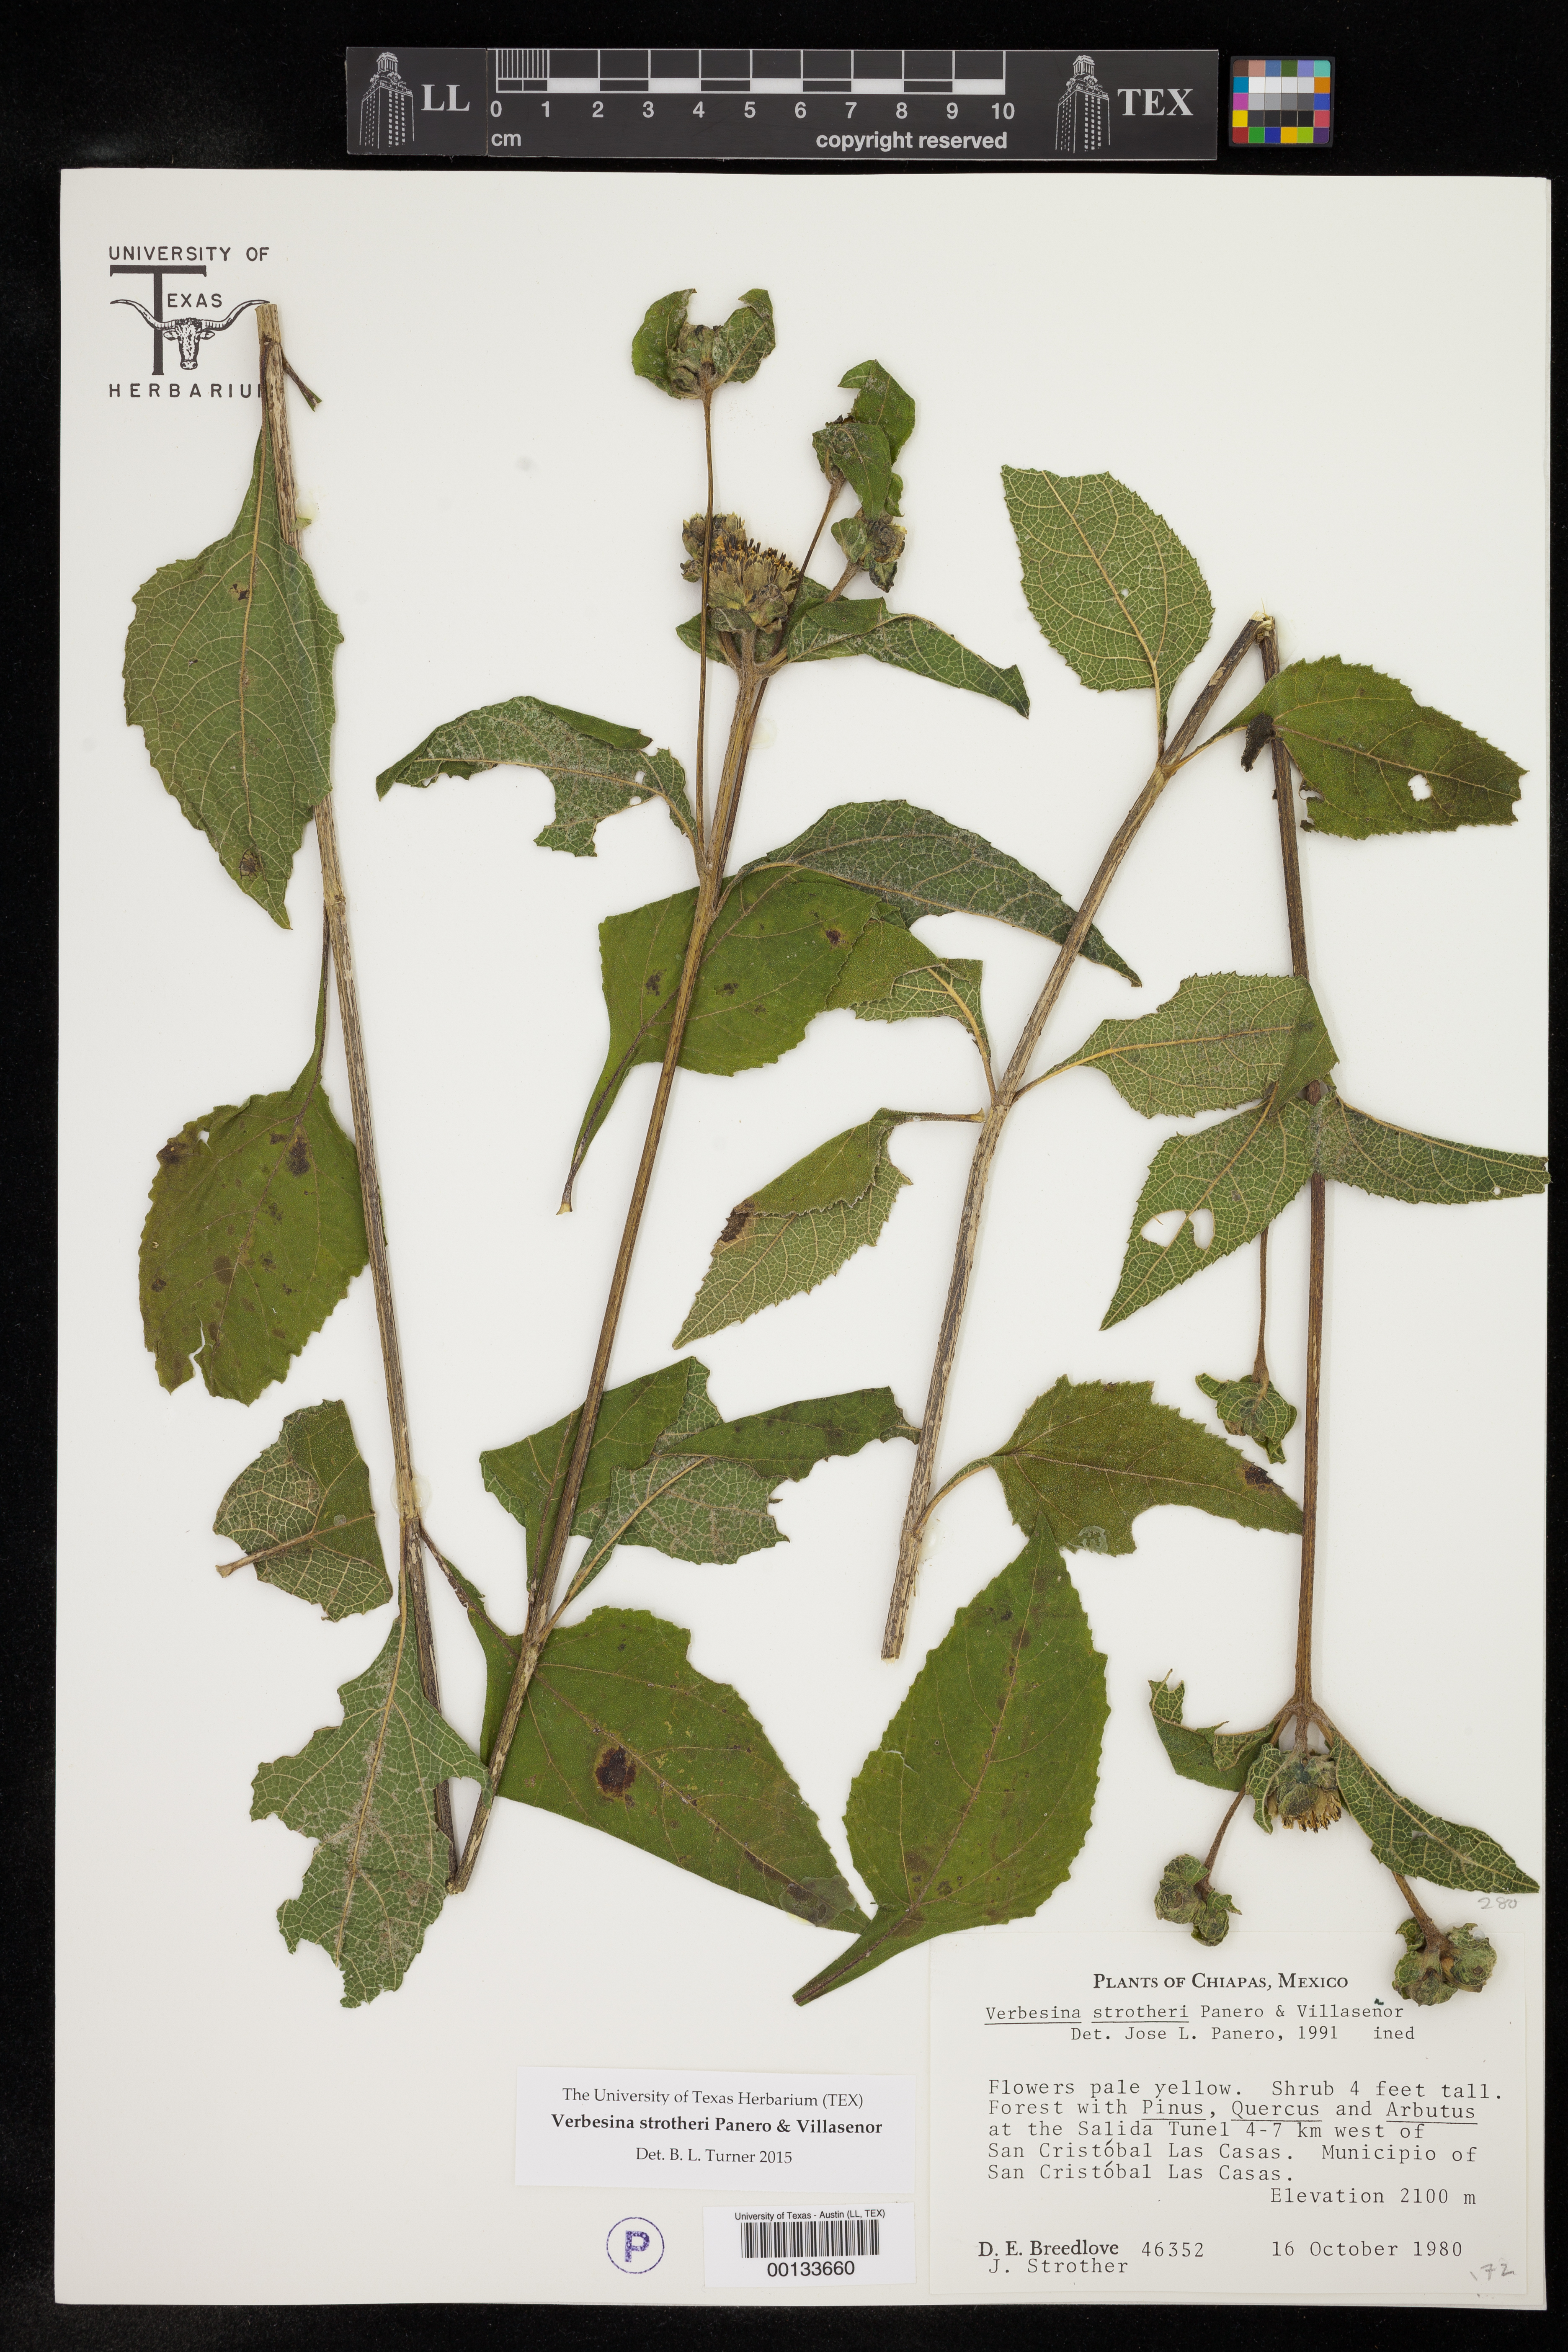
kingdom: Plantae
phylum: Tracheophyta
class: Magnoliopsida
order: Asterales
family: Asteraceae
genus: Verbesina
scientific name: Verbesina strotheri
